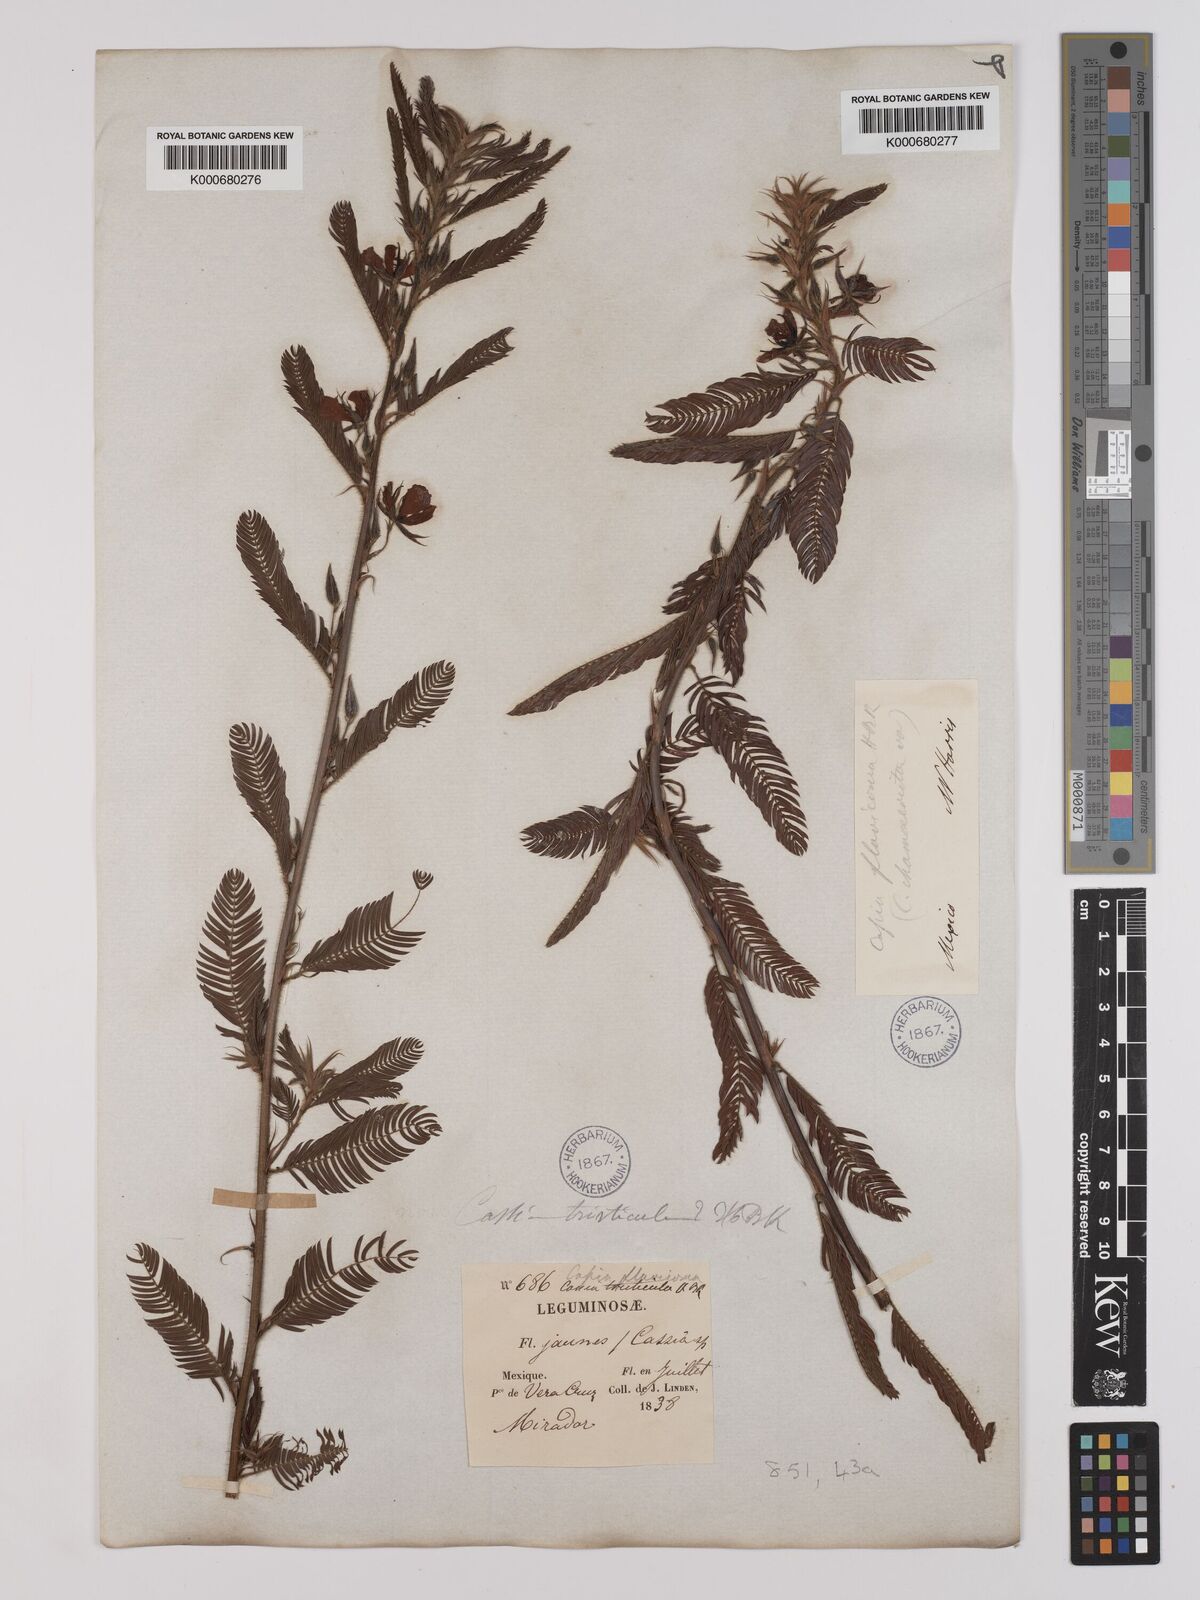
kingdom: Plantae
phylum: Tracheophyta
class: Magnoliopsida
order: Fabales
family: Fabaceae
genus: Chamaecrista
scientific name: Chamaecrista glandulosa
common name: Wild peas
